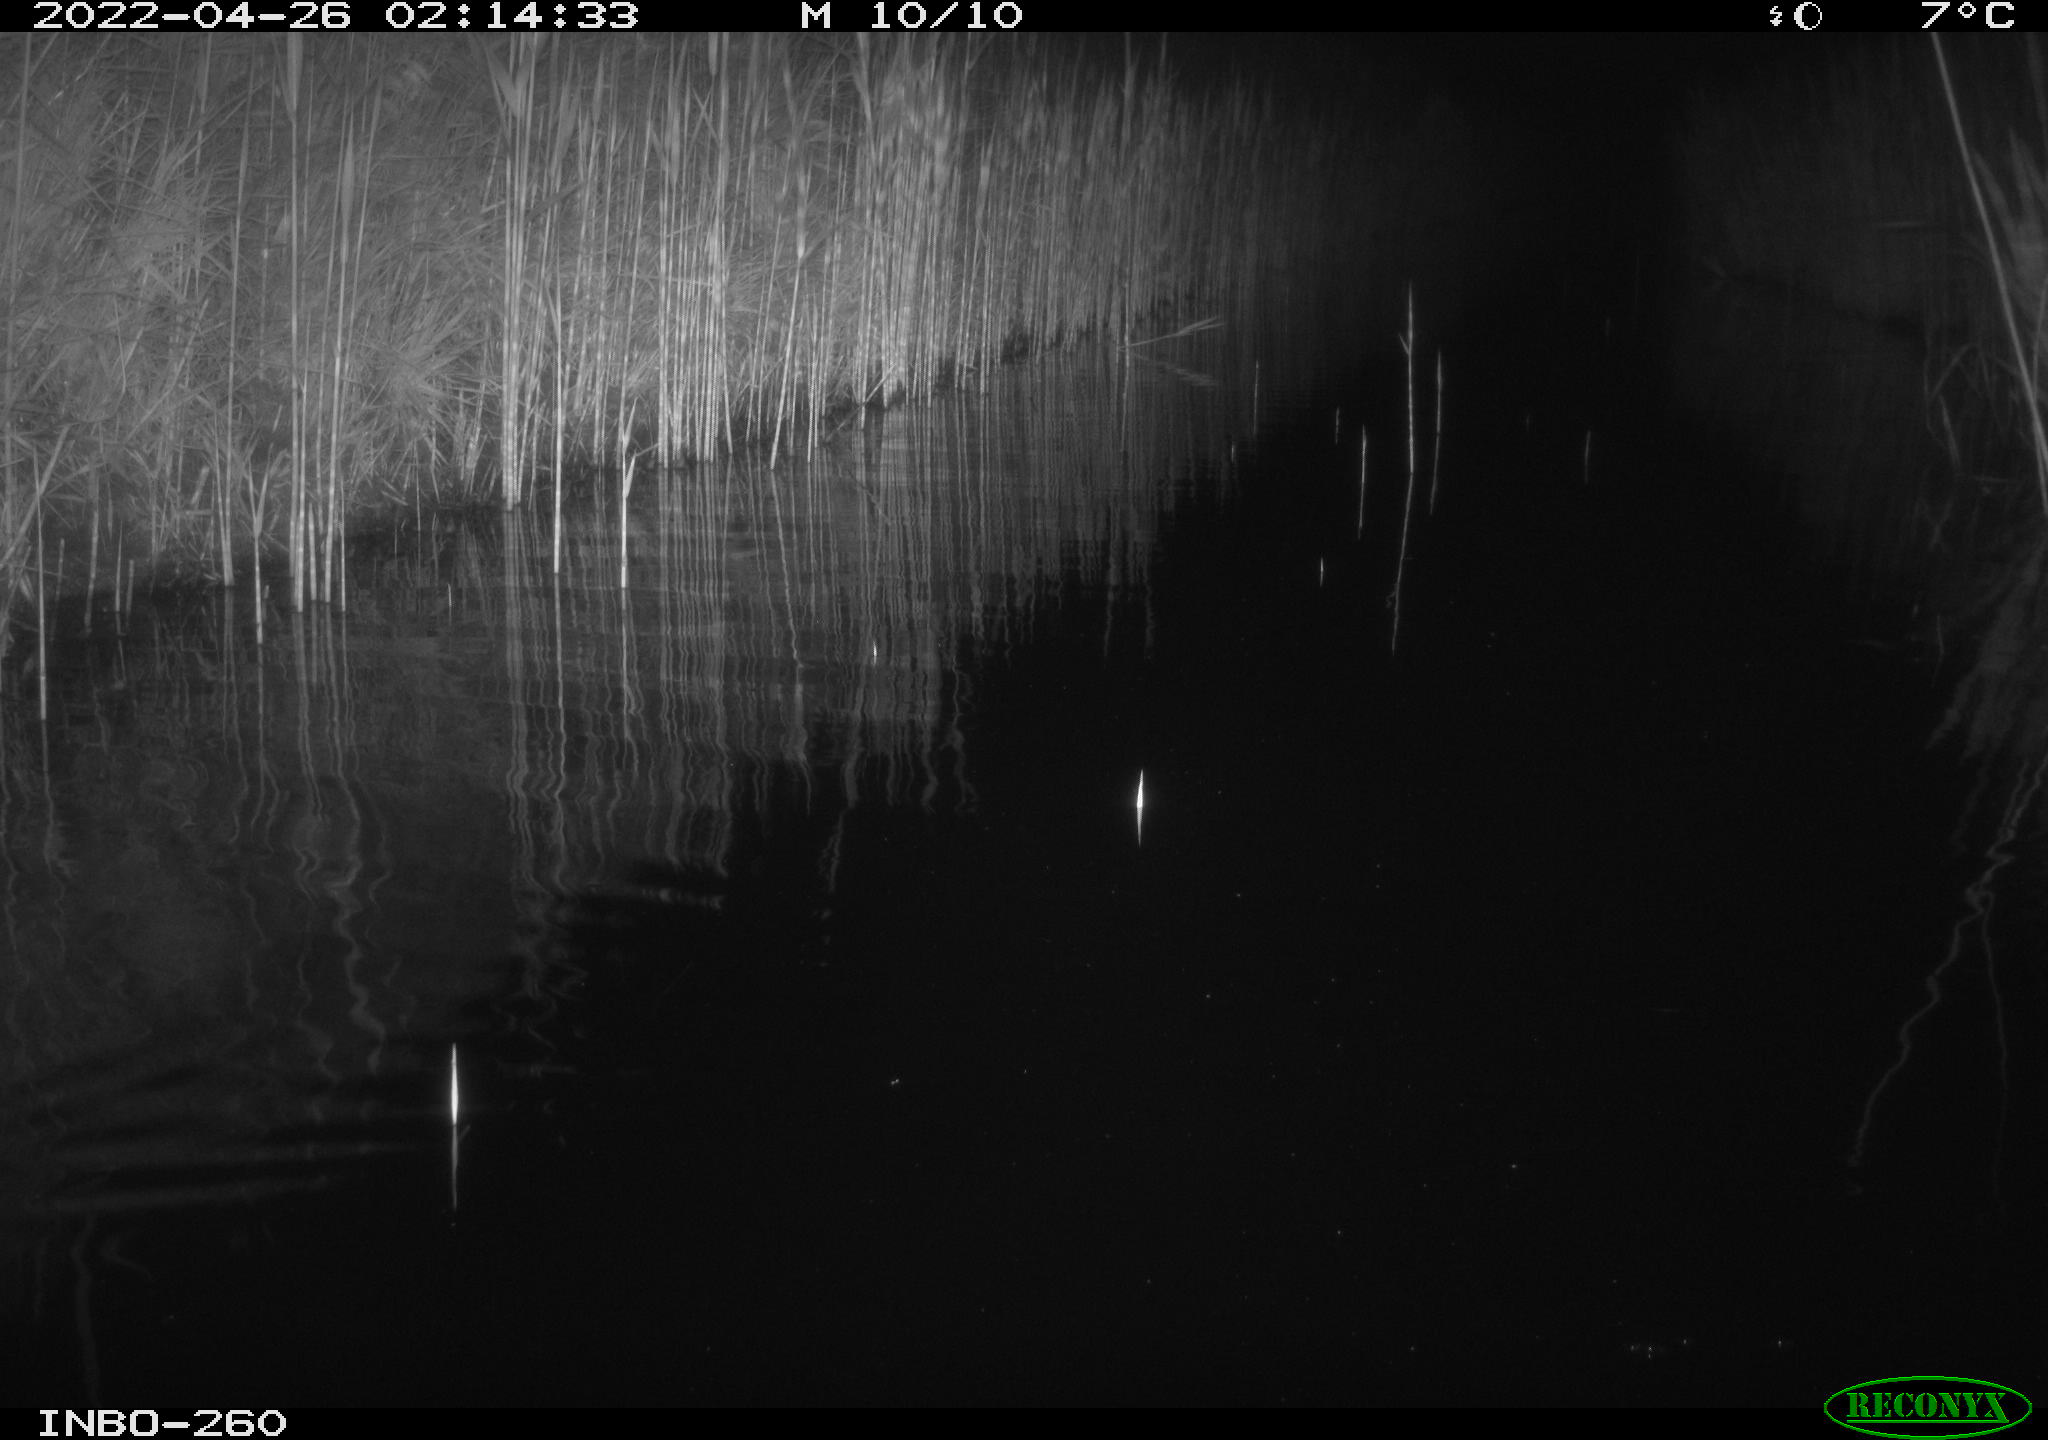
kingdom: Animalia
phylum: Chordata
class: Mammalia
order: Rodentia
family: Muridae
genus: Rattus
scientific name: Rattus norvegicus
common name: Brown rat
